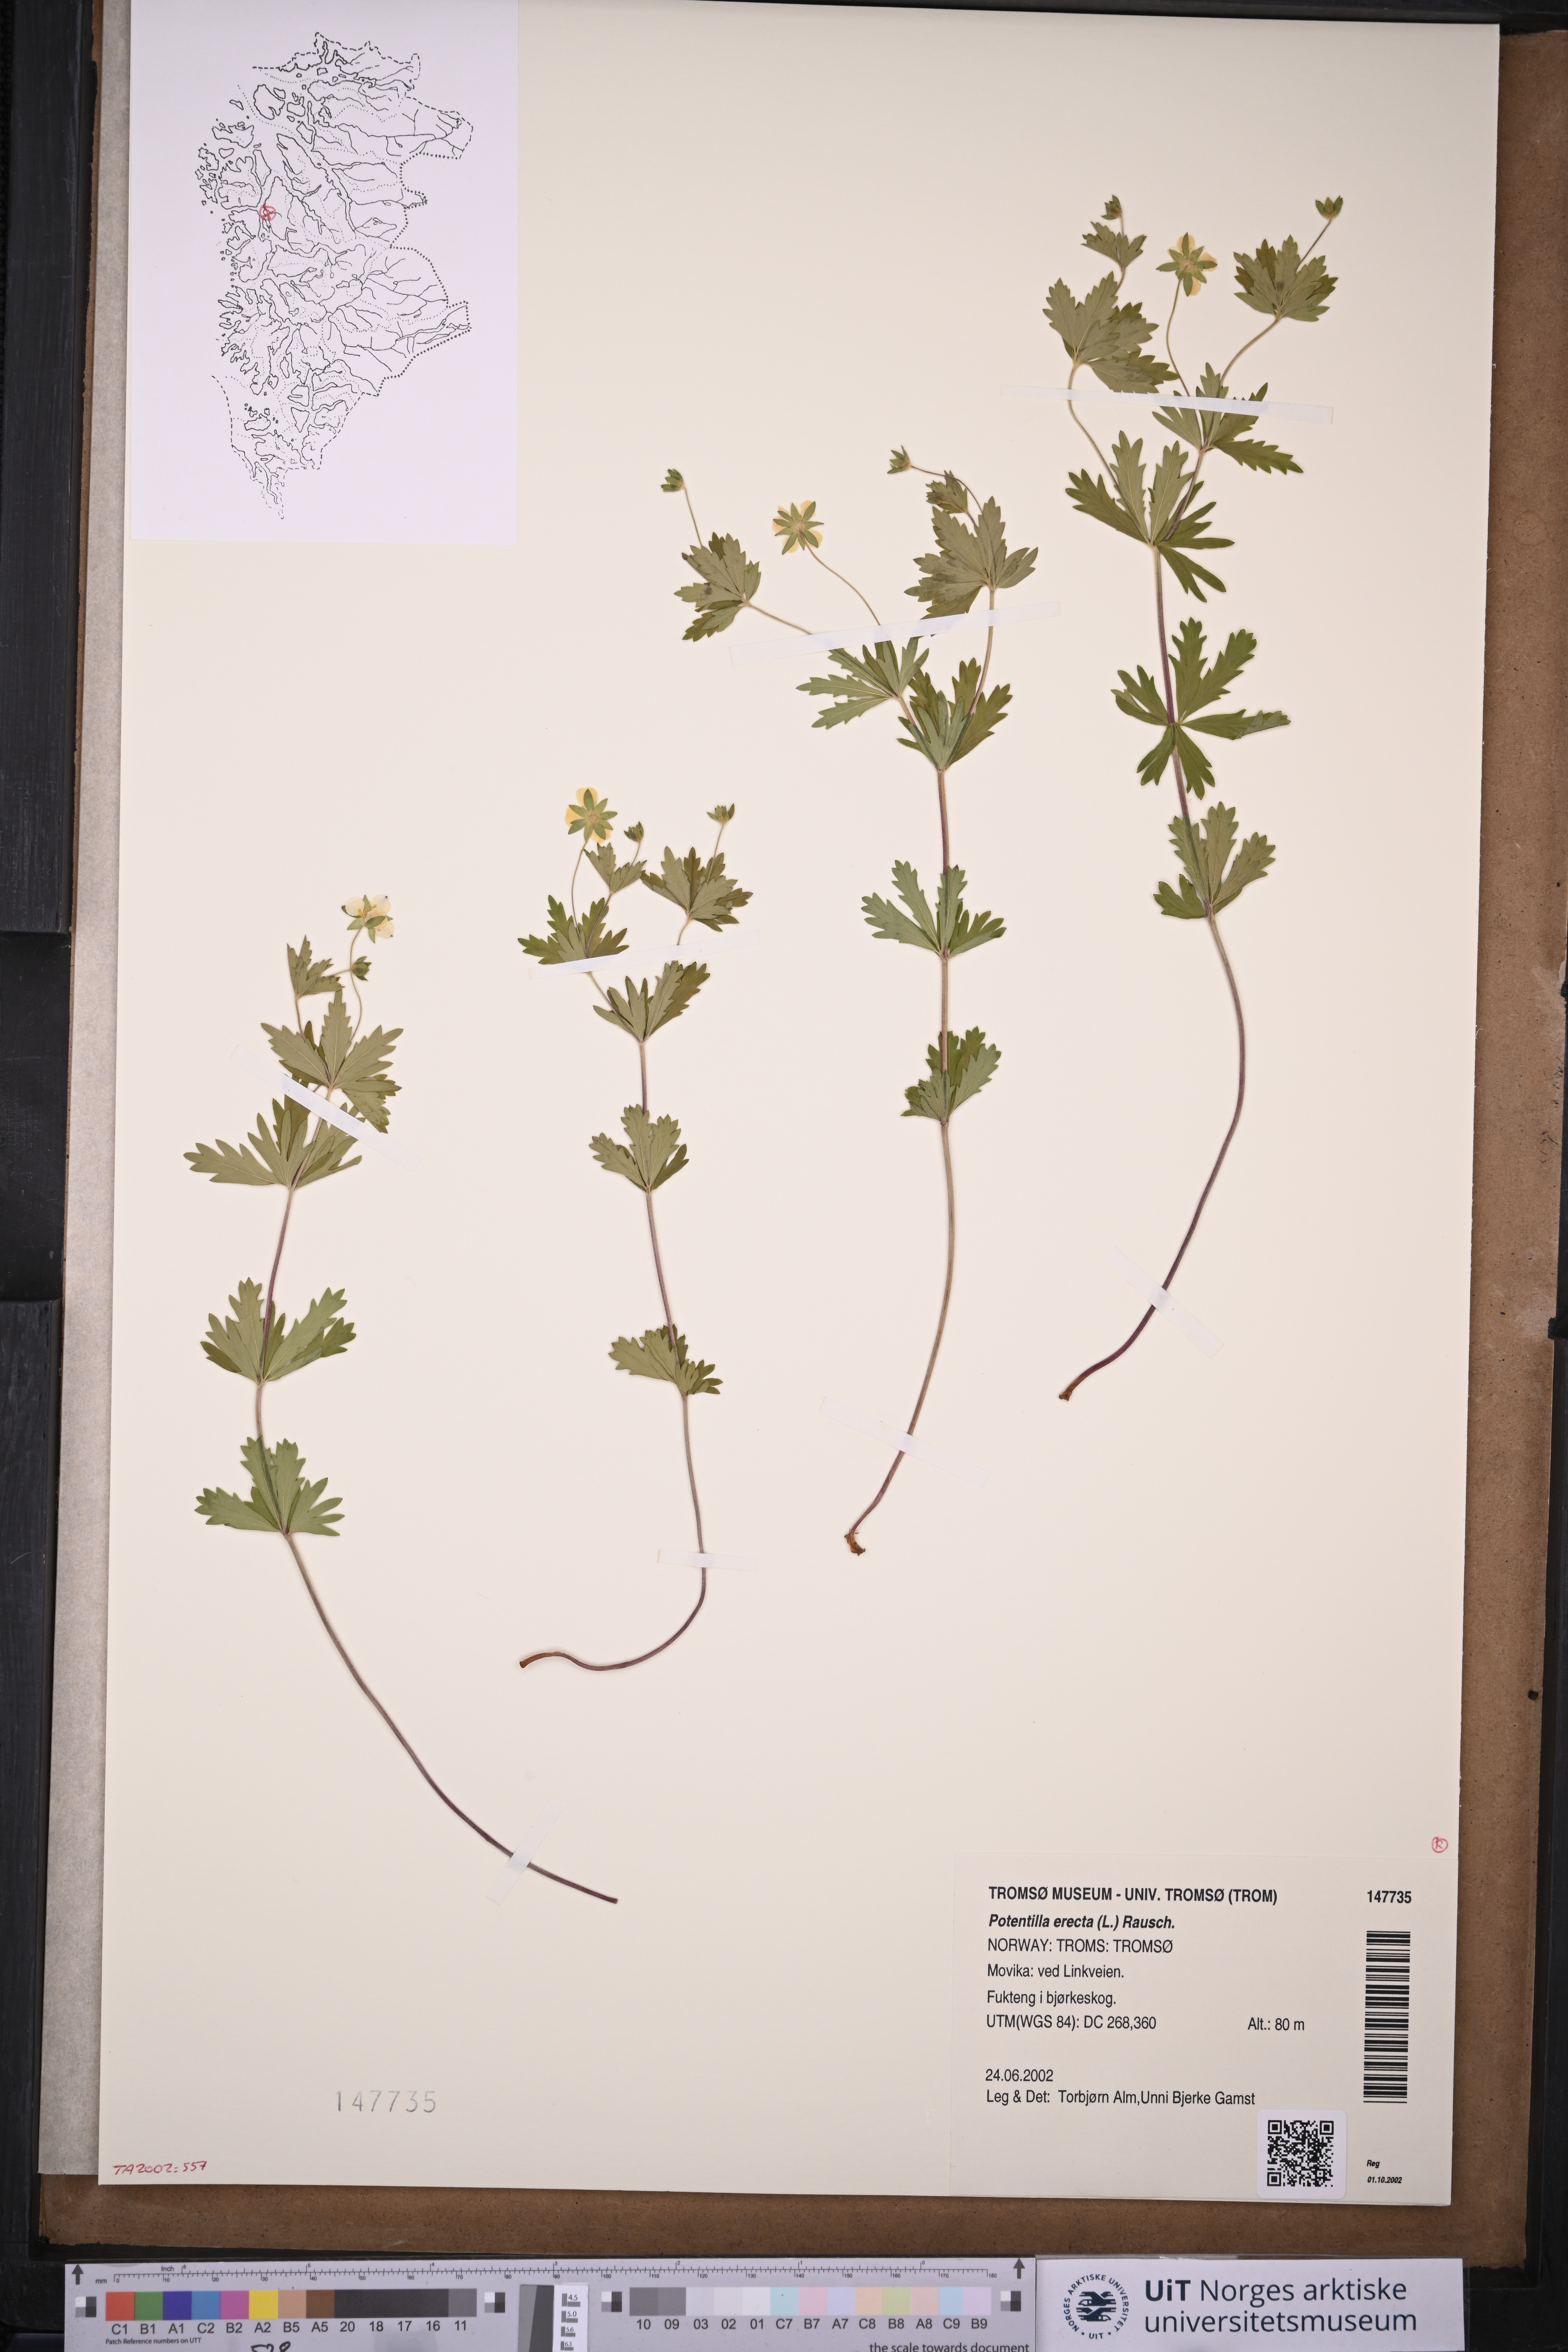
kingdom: Plantae
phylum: Tracheophyta
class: Magnoliopsida
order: Rosales
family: Rosaceae
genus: Potentilla
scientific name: Potentilla erecta
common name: Tormentil
